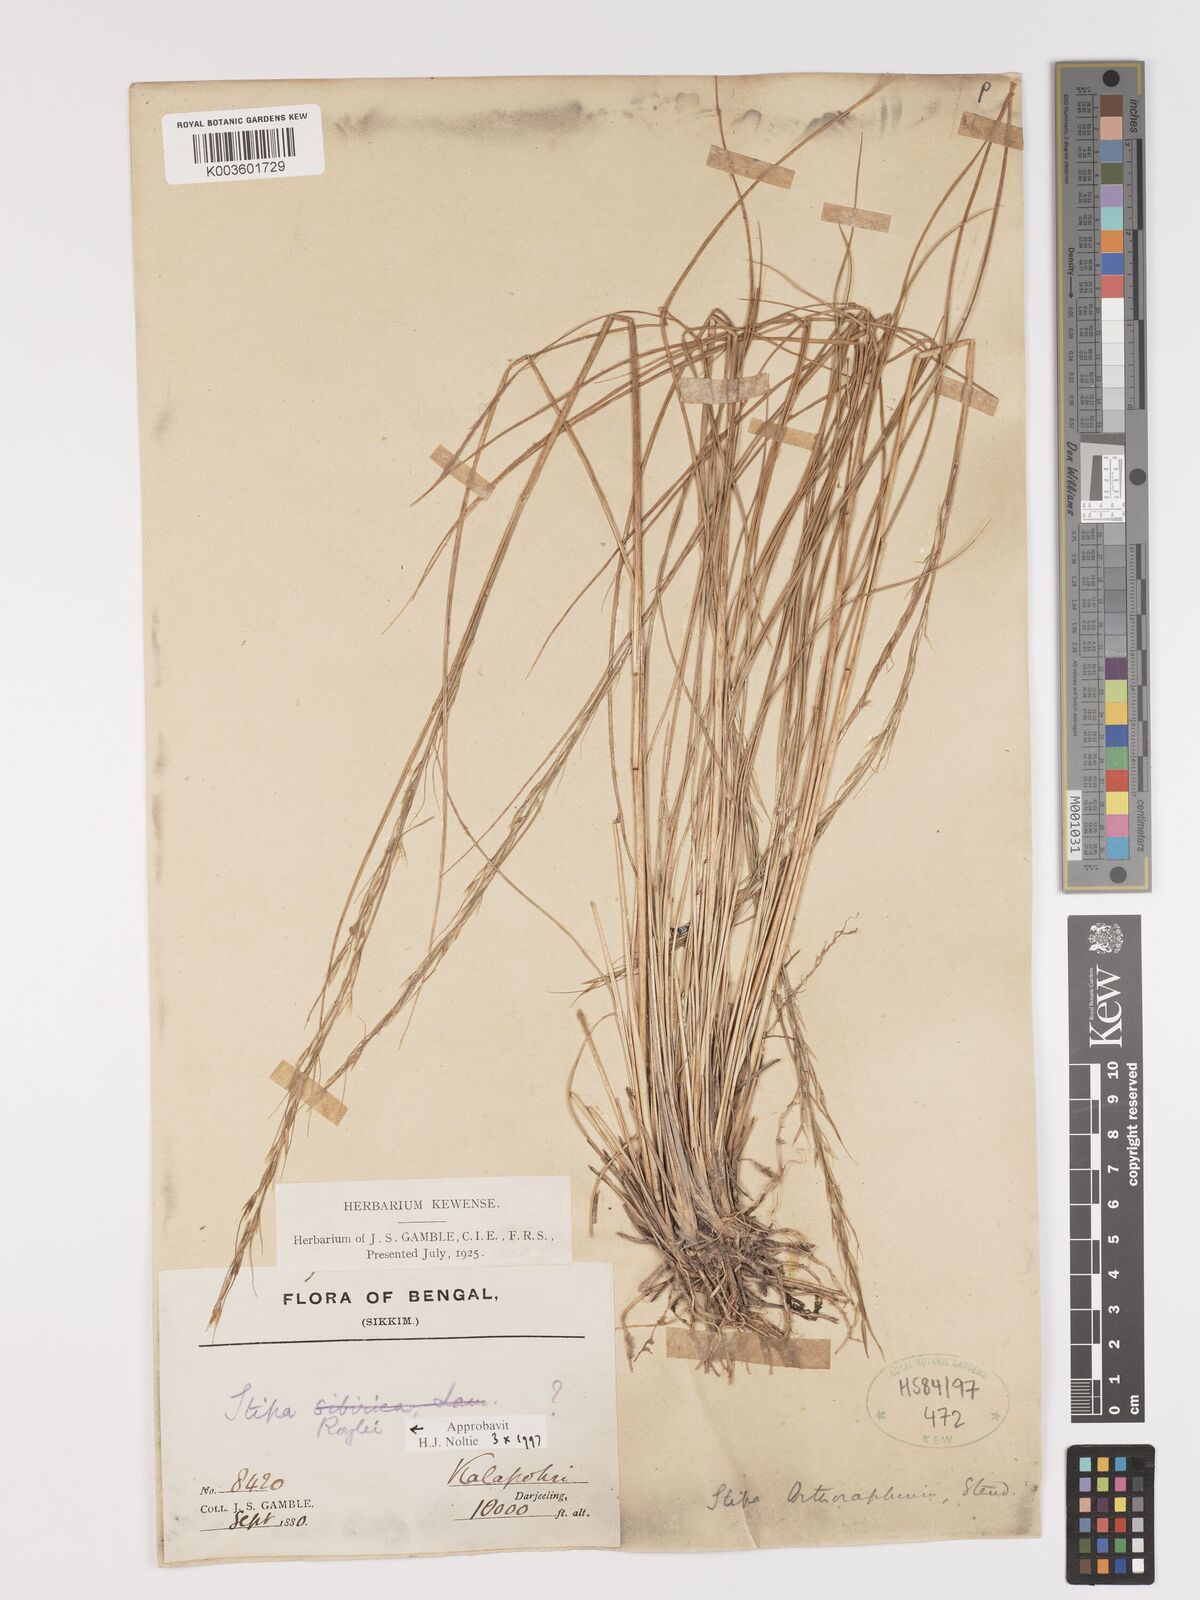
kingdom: Plantae
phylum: Tracheophyta
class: Liliopsida
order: Poales
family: Poaceae
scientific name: Poaceae
